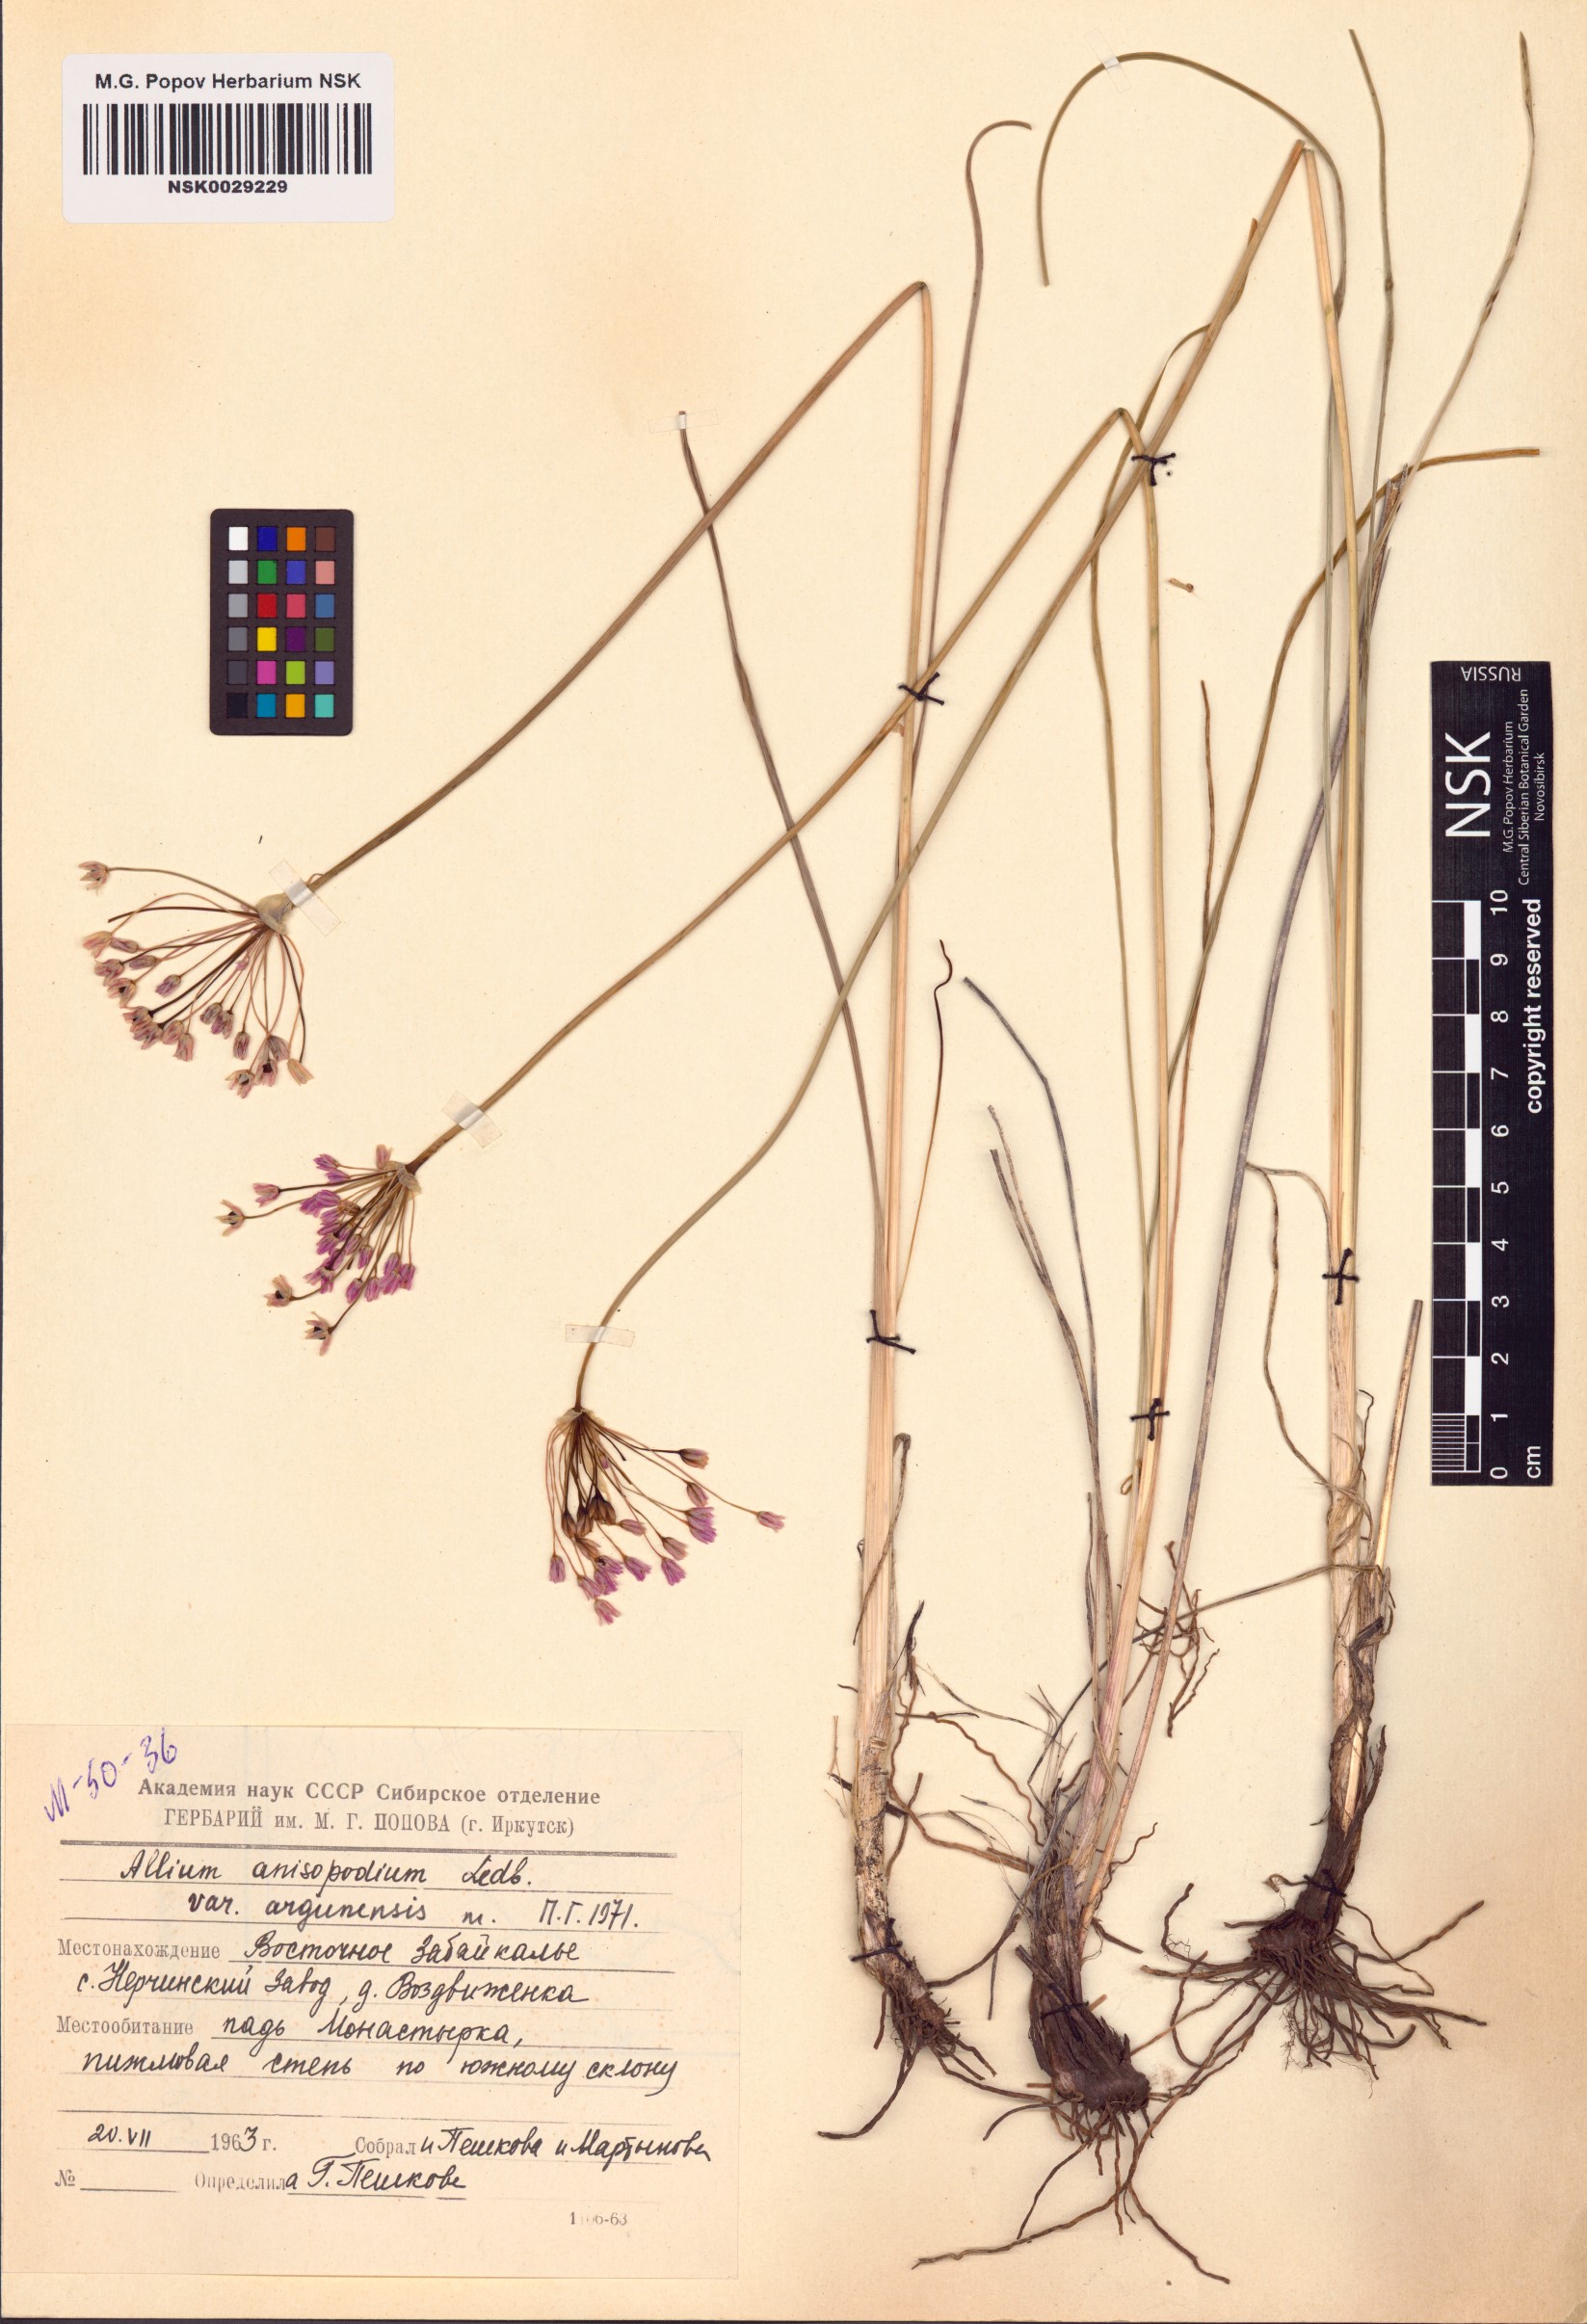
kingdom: Plantae
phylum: Tracheophyta
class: Liliopsida
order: Asparagales
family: Amaryllidaceae
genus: Allium
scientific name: Allium anisopodium
